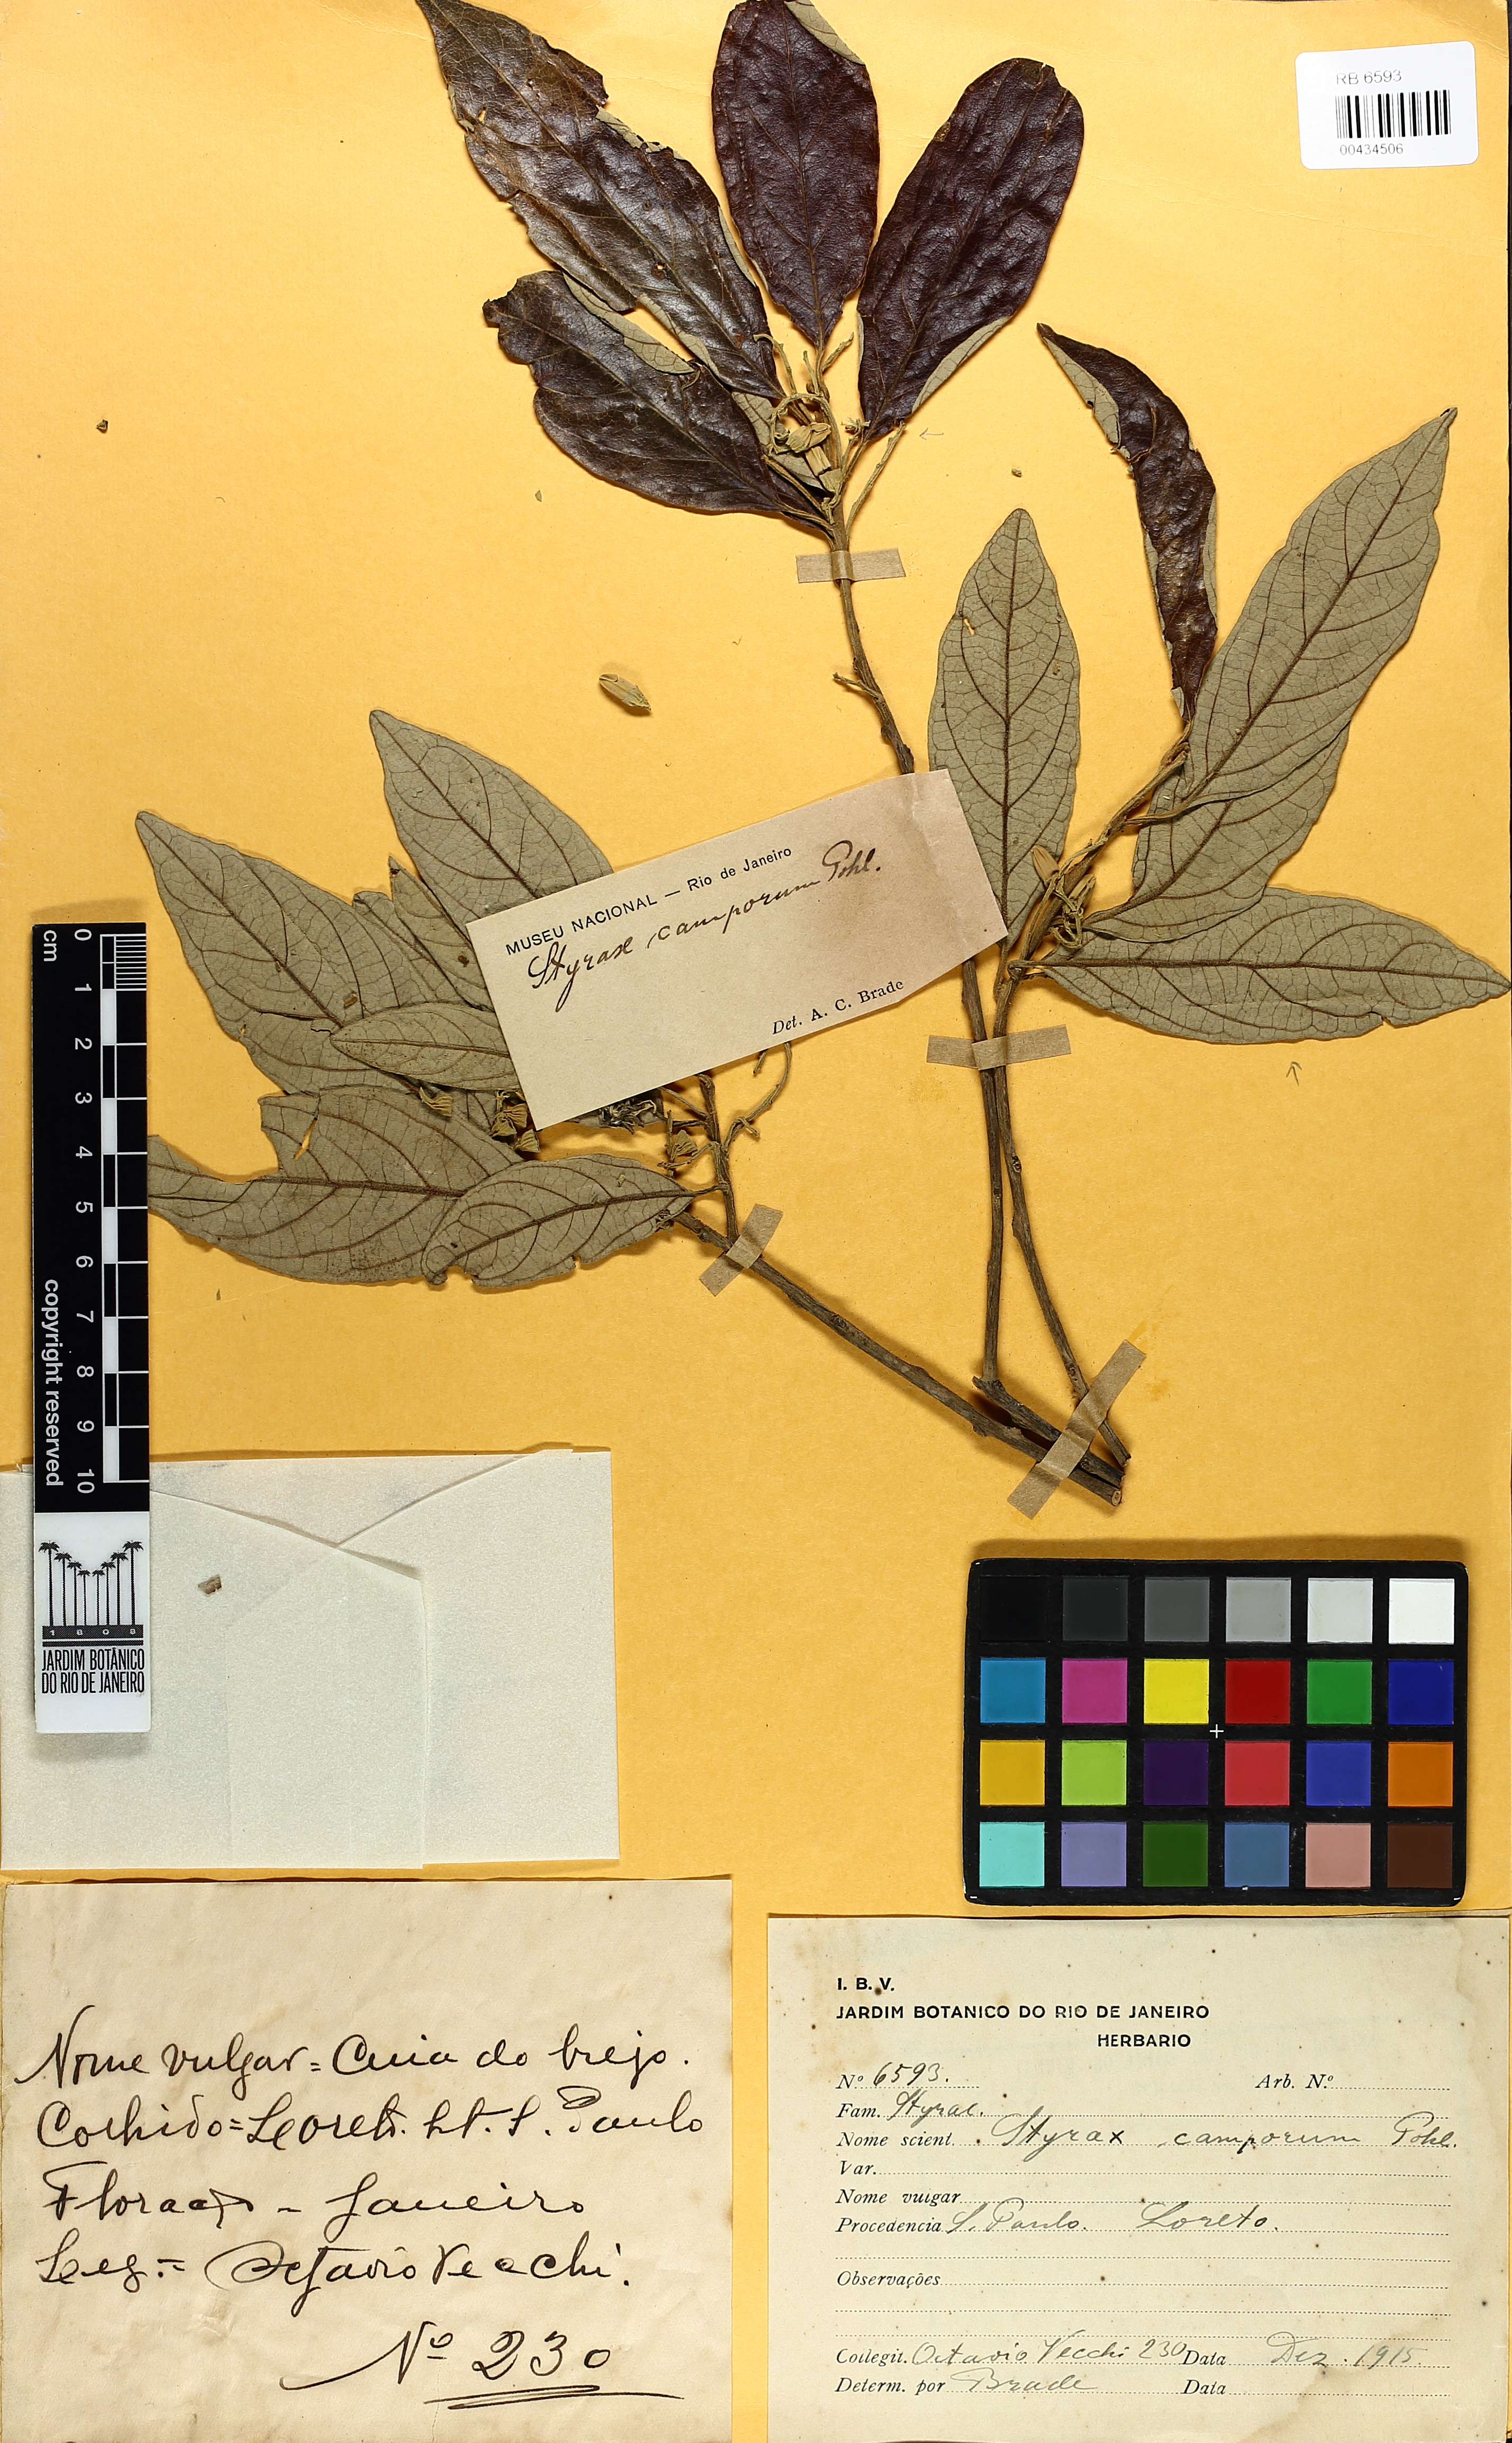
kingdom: Plantae
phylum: Tracheophyta
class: Magnoliopsida
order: Ericales
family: Styracaceae
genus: Styrax
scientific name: Styrax camporum
